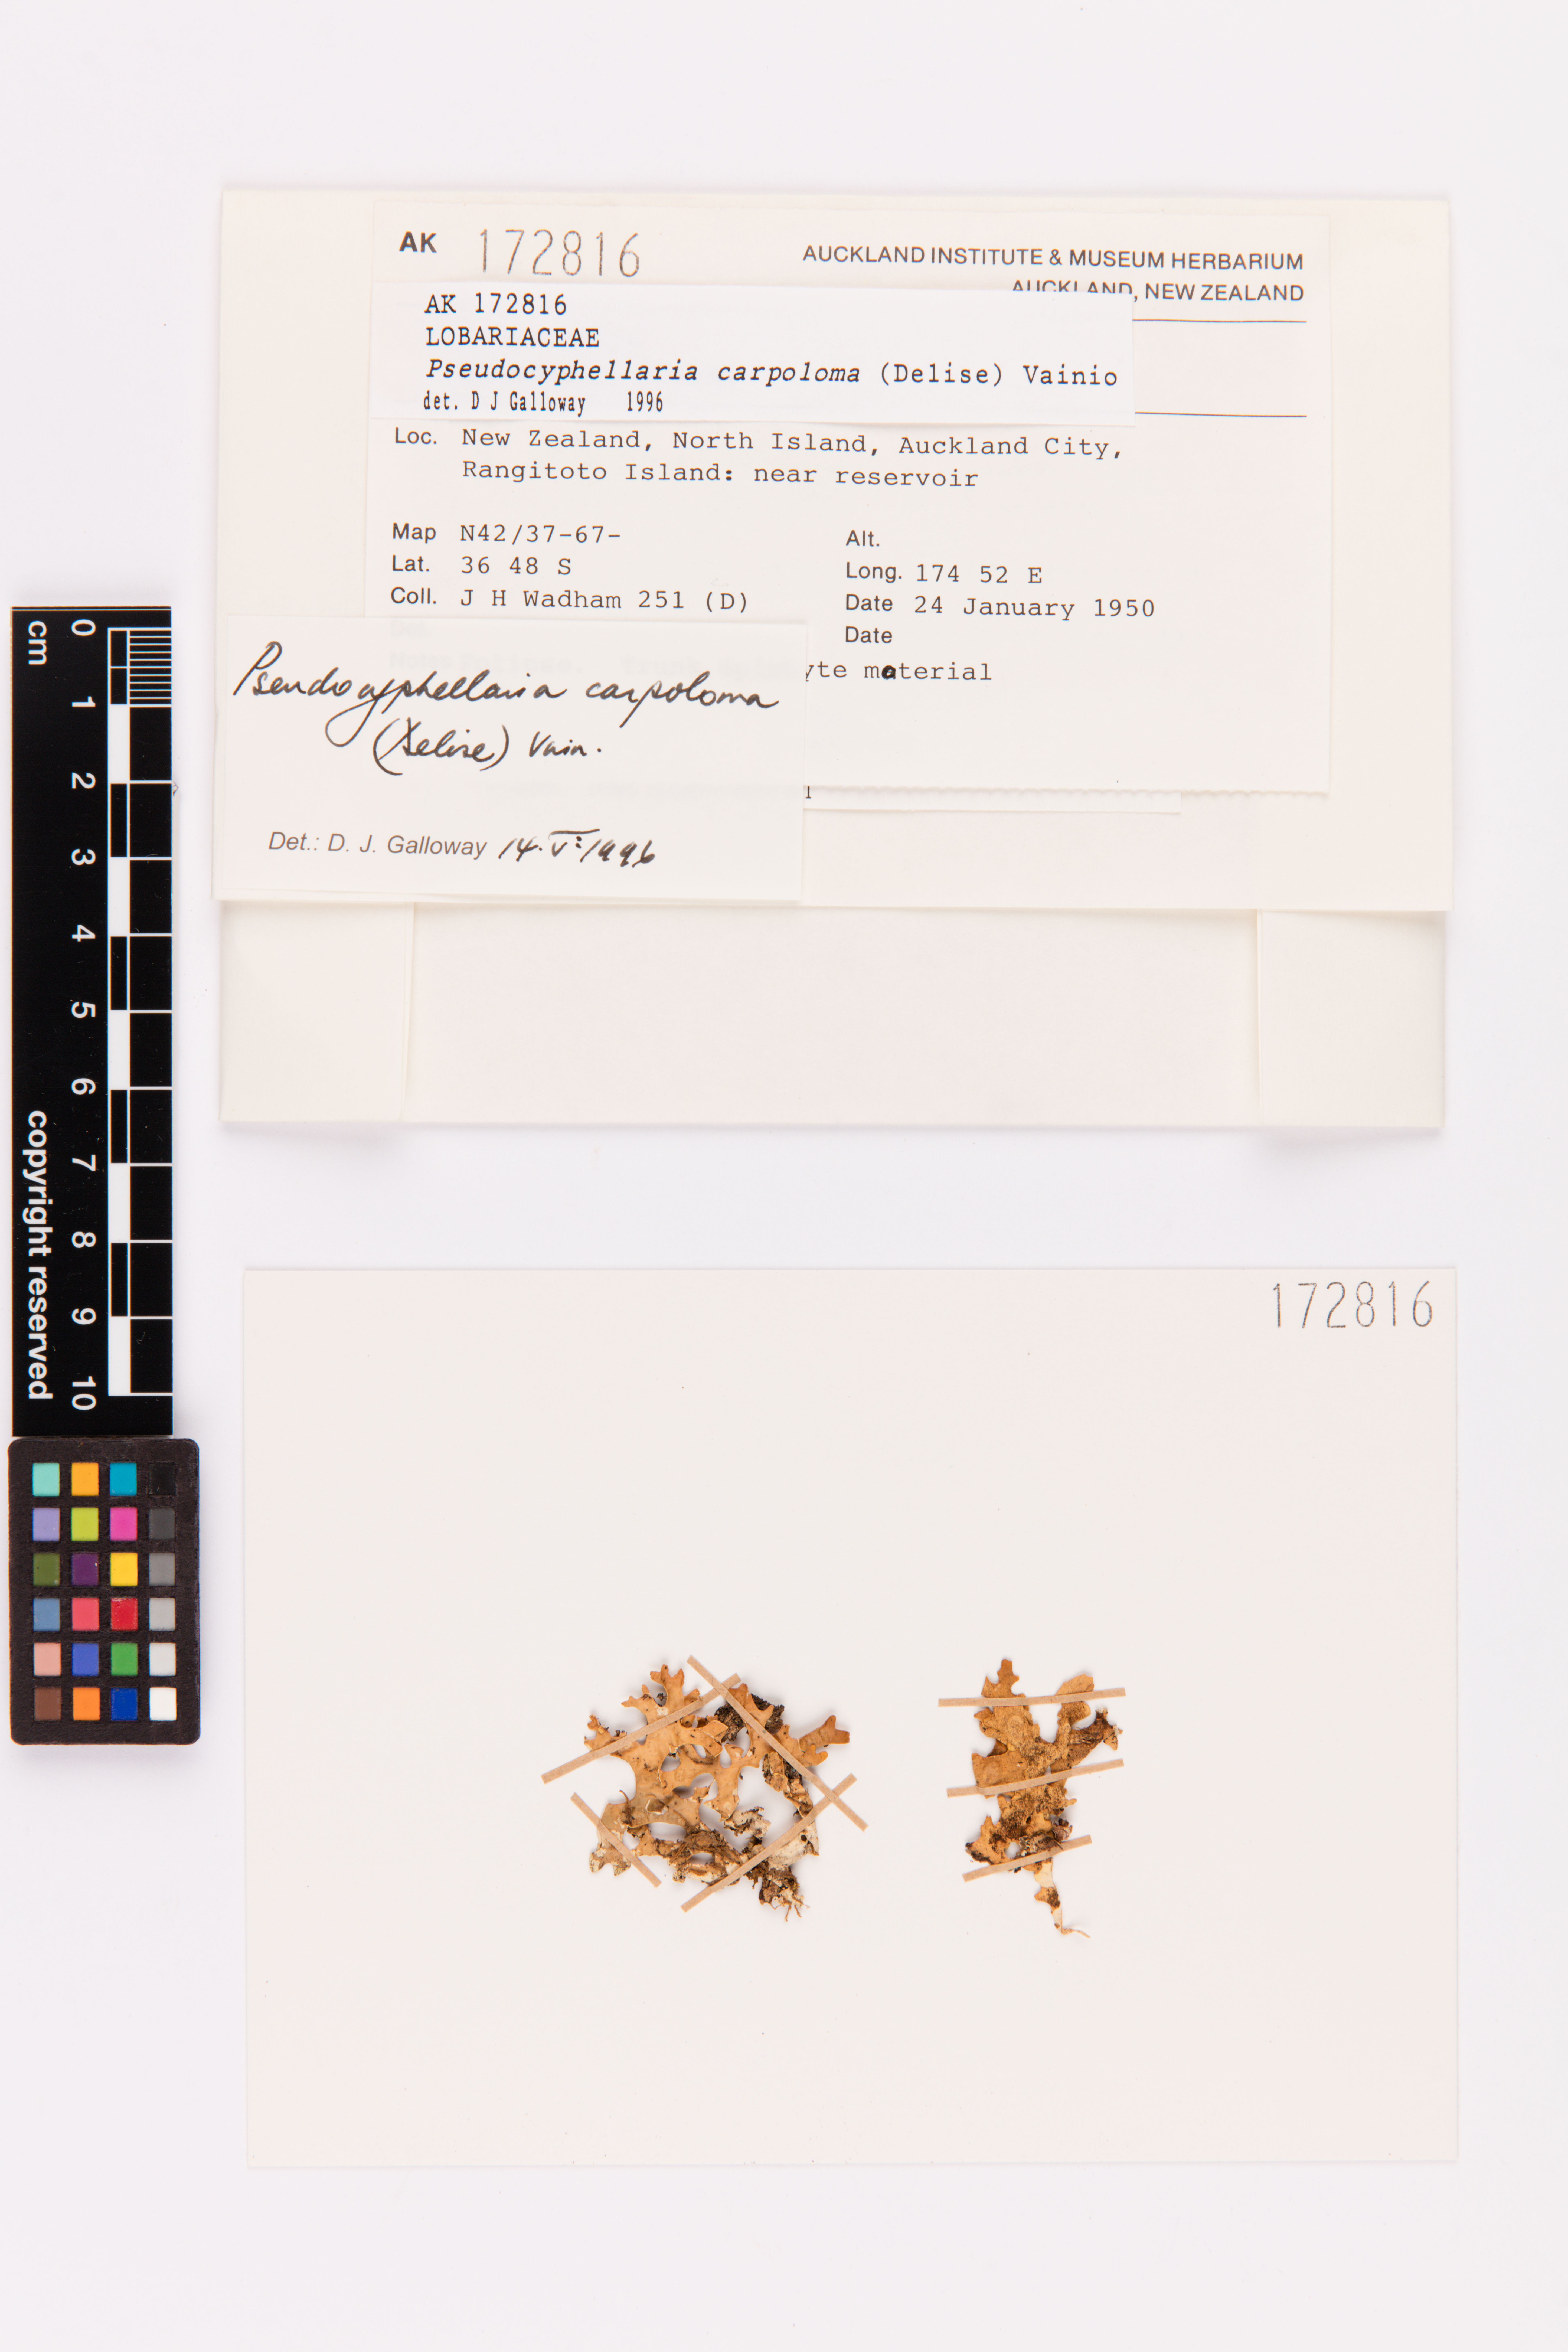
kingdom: Fungi
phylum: Ascomycota
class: Lecanoromycetes
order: Peltigerales
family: Lobariaceae
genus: Pseudocyphellaria
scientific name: Pseudocyphellaria carpoloma
